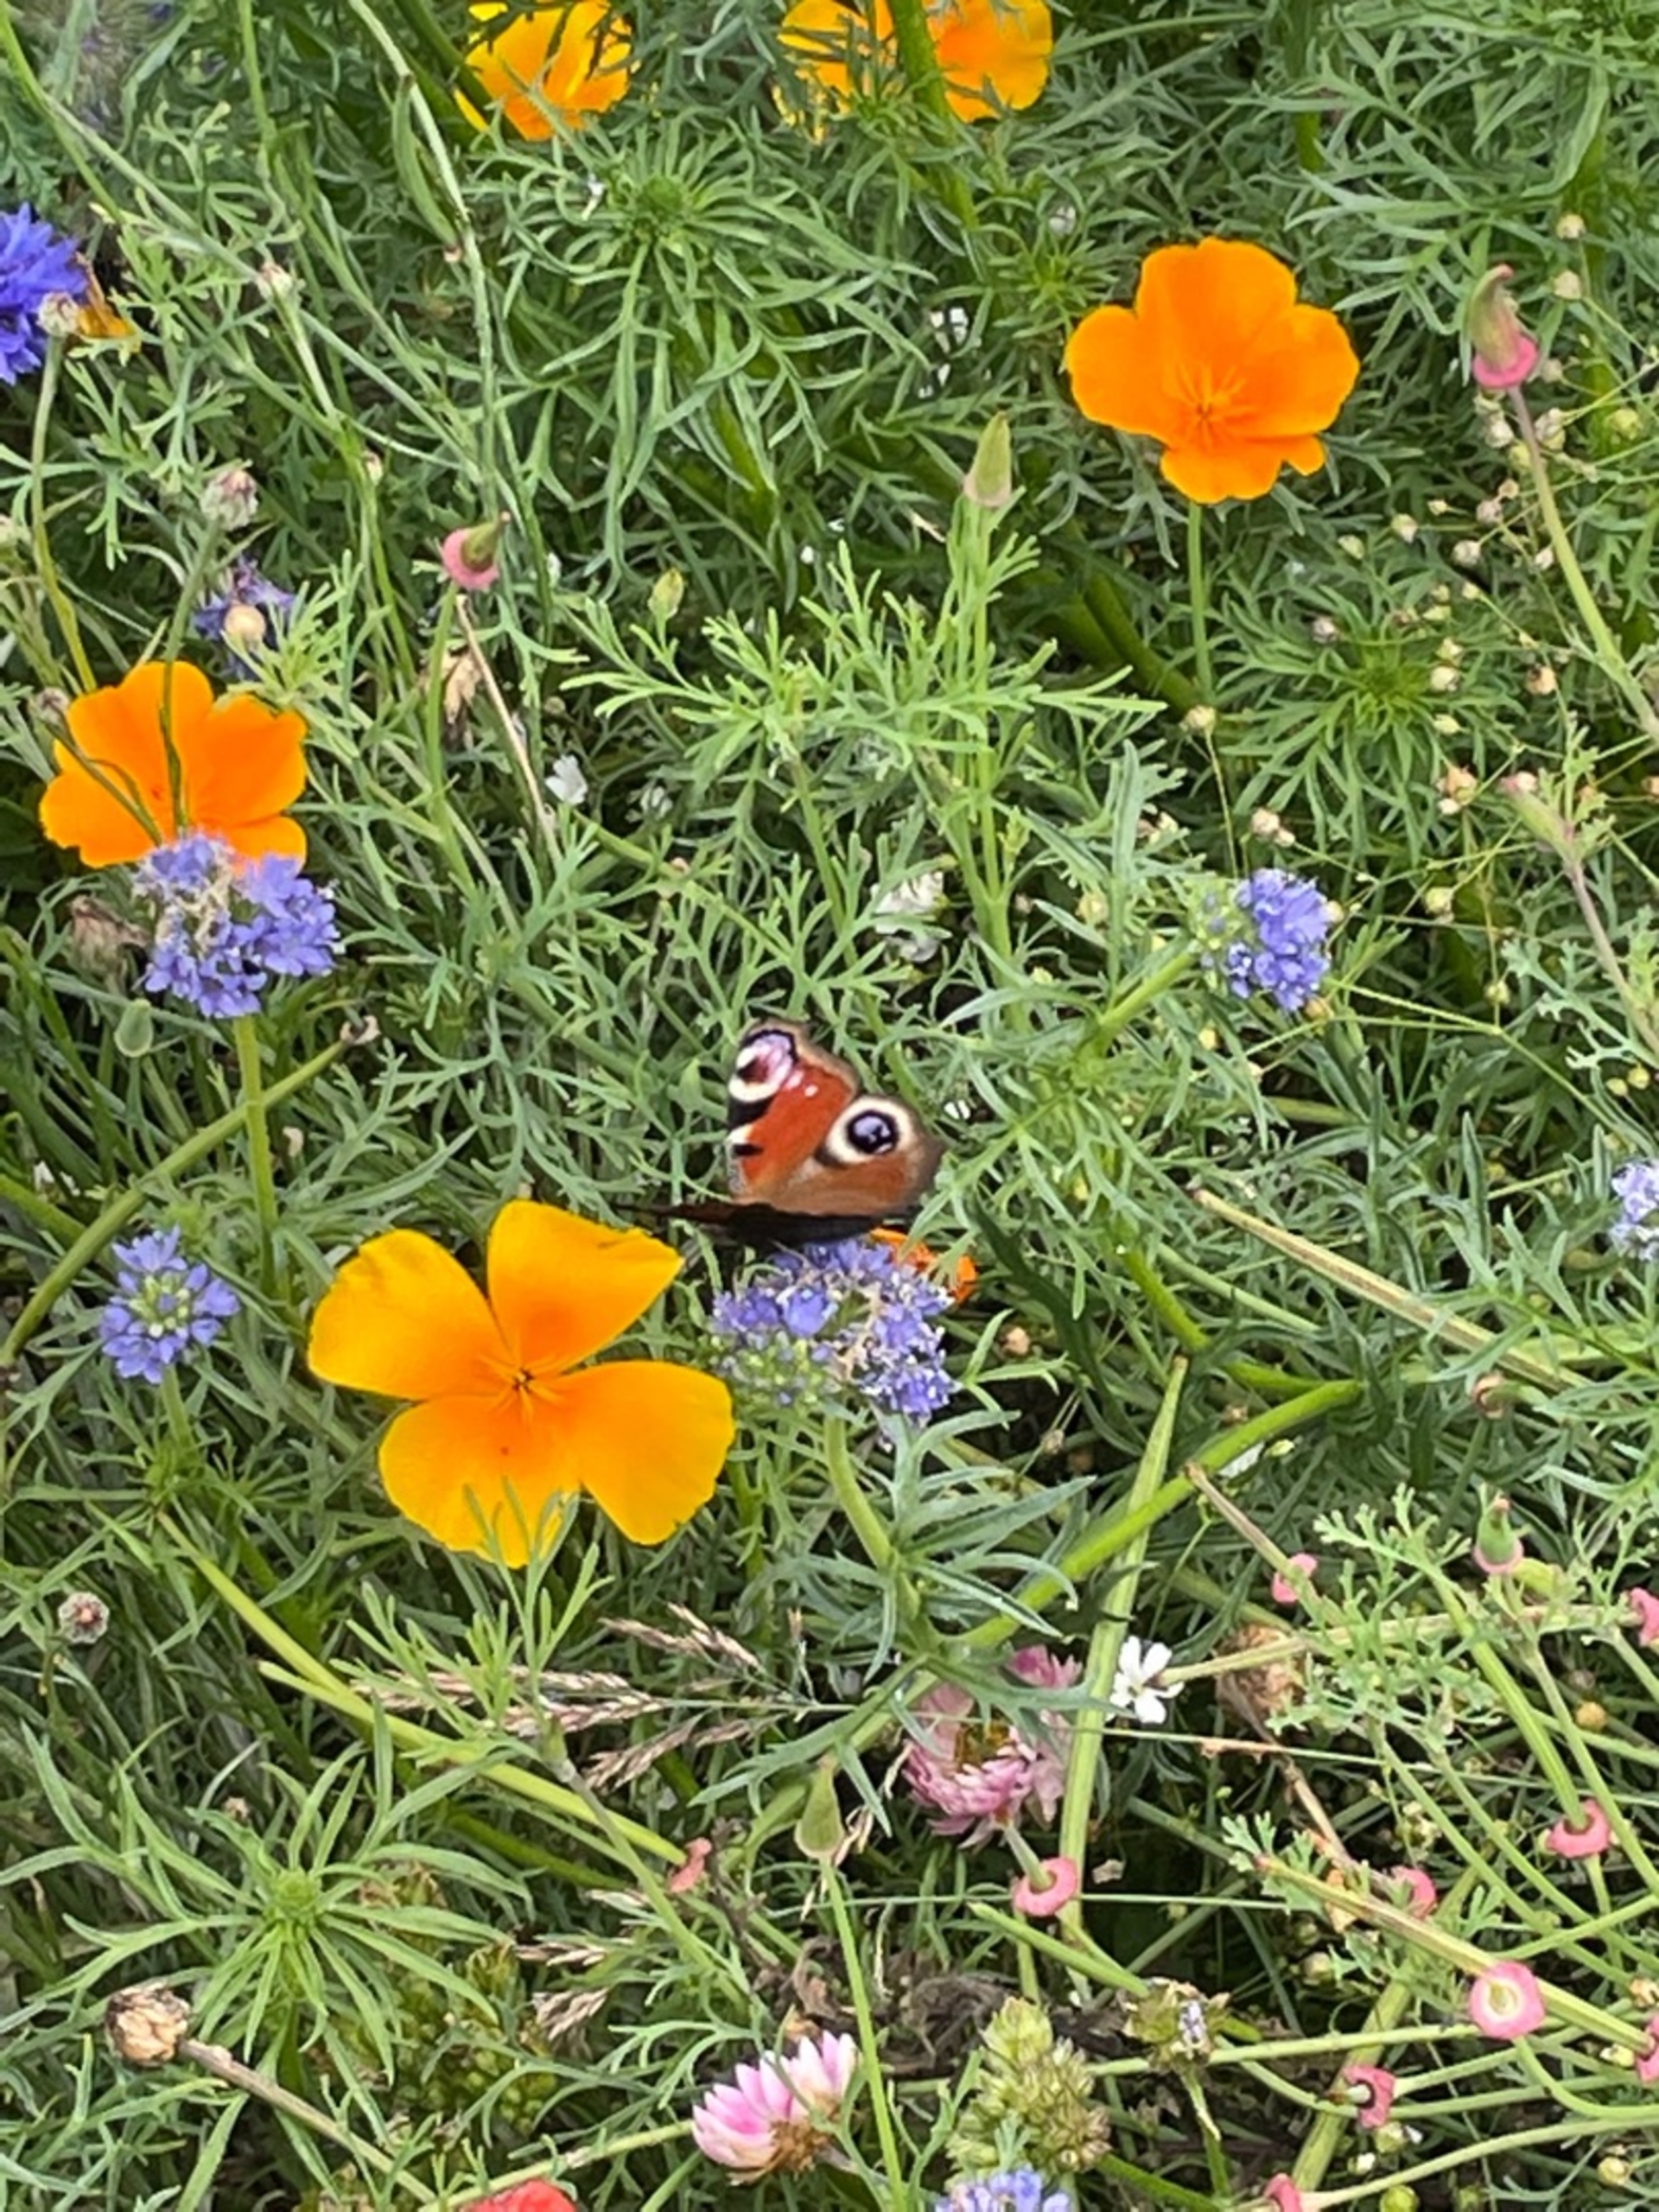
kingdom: Animalia
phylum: Arthropoda
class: Insecta
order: Lepidoptera
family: Nymphalidae
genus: Aglais
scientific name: Aglais io
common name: Dagpåfugleøje
